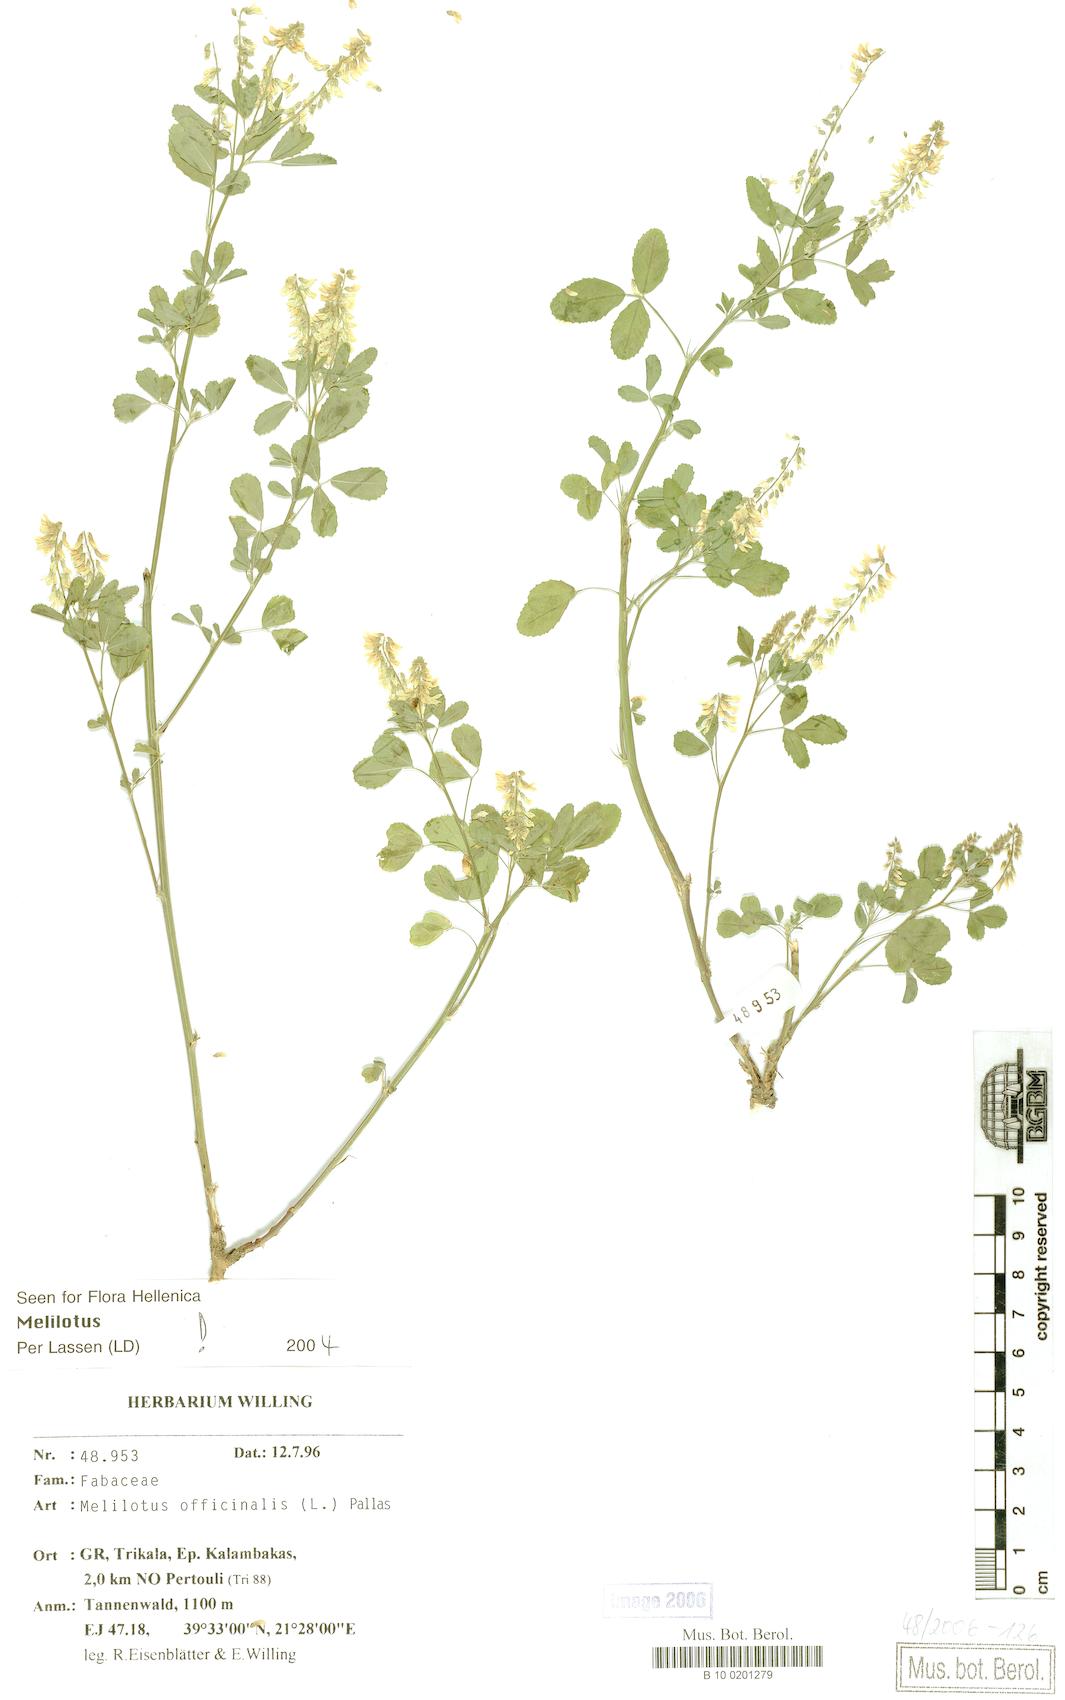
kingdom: Plantae
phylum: Tracheophyta
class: Magnoliopsida
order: Fabales
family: Fabaceae
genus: Melilotus
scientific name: Melilotus officinalis
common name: Sweetclover
